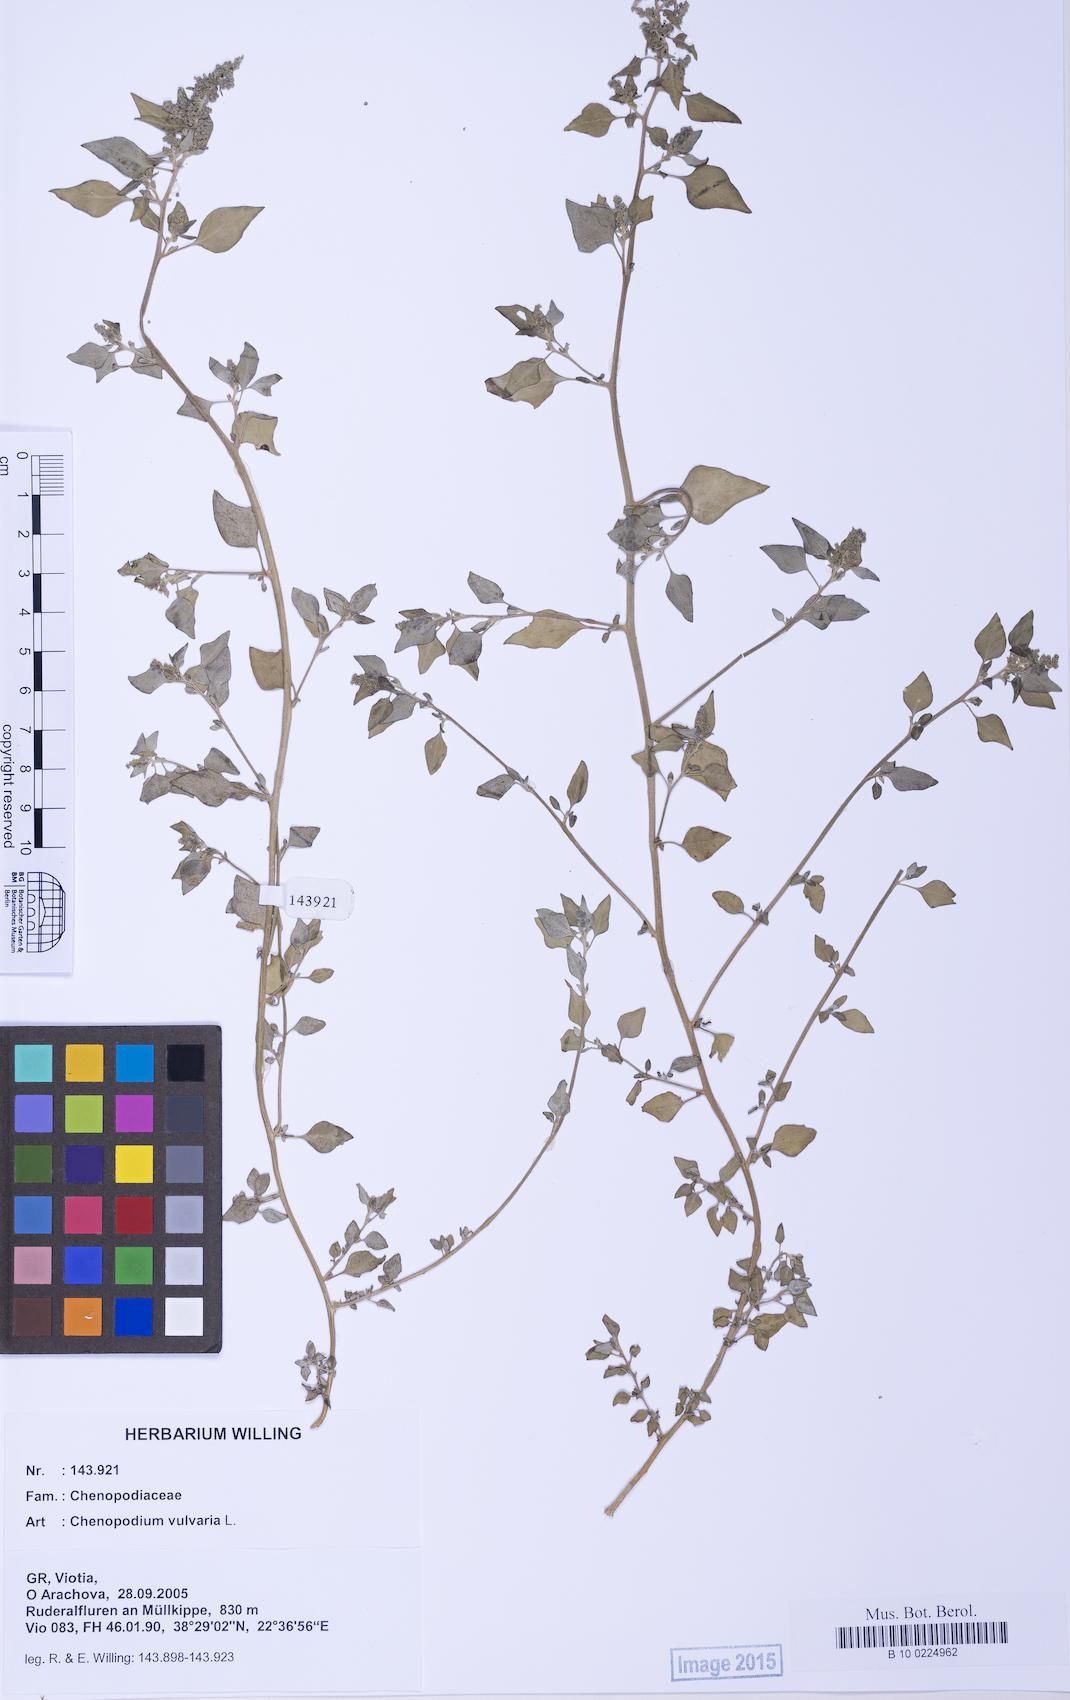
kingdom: Plantae
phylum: Tracheophyta
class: Magnoliopsida
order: Caryophyllales
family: Amaranthaceae
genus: Chenopodium
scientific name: Chenopodium vulvaria
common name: Stinking goosefoot
